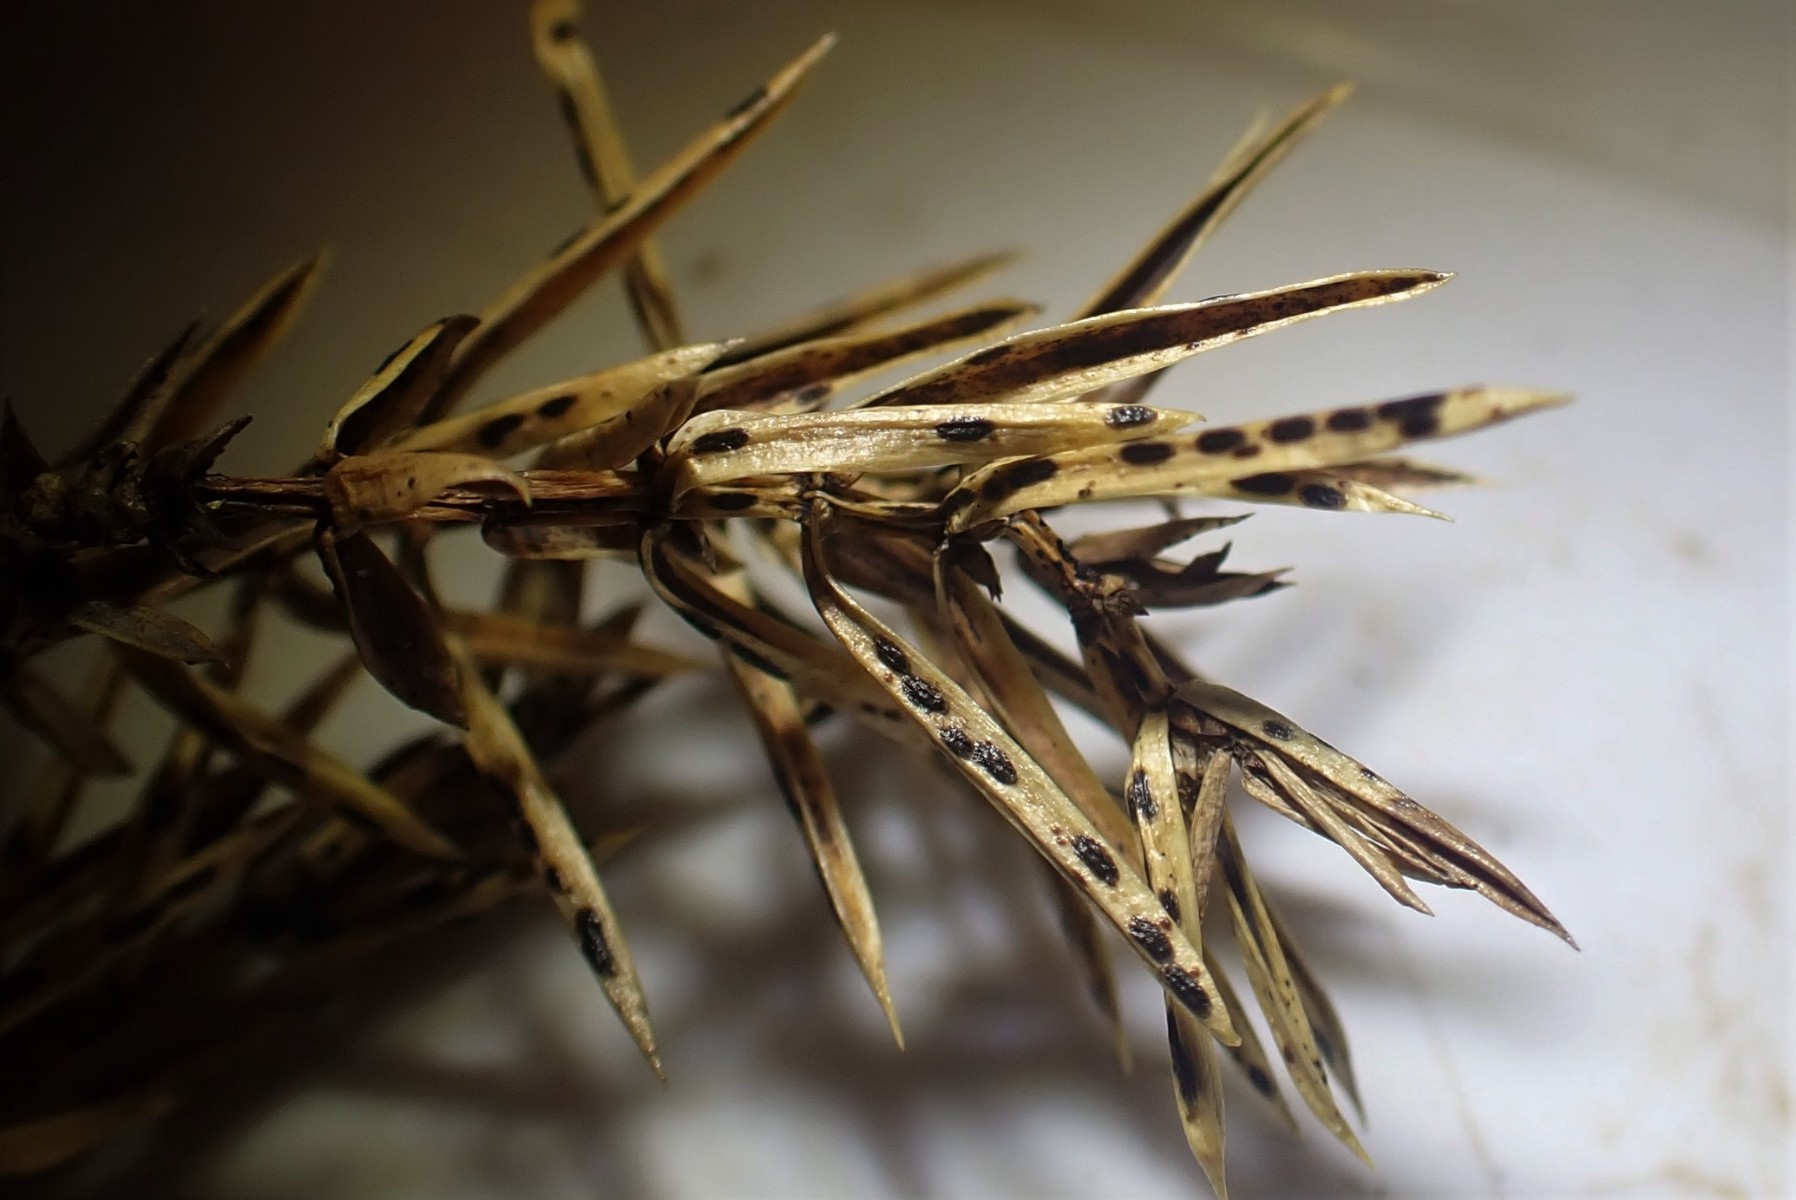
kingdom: Fungi
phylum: Ascomycota
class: Leotiomycetes
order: Rhytismatales
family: Rhytismataceae
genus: Lophodermium
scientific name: Lophodermium juniperinum
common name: ene-fureplet
